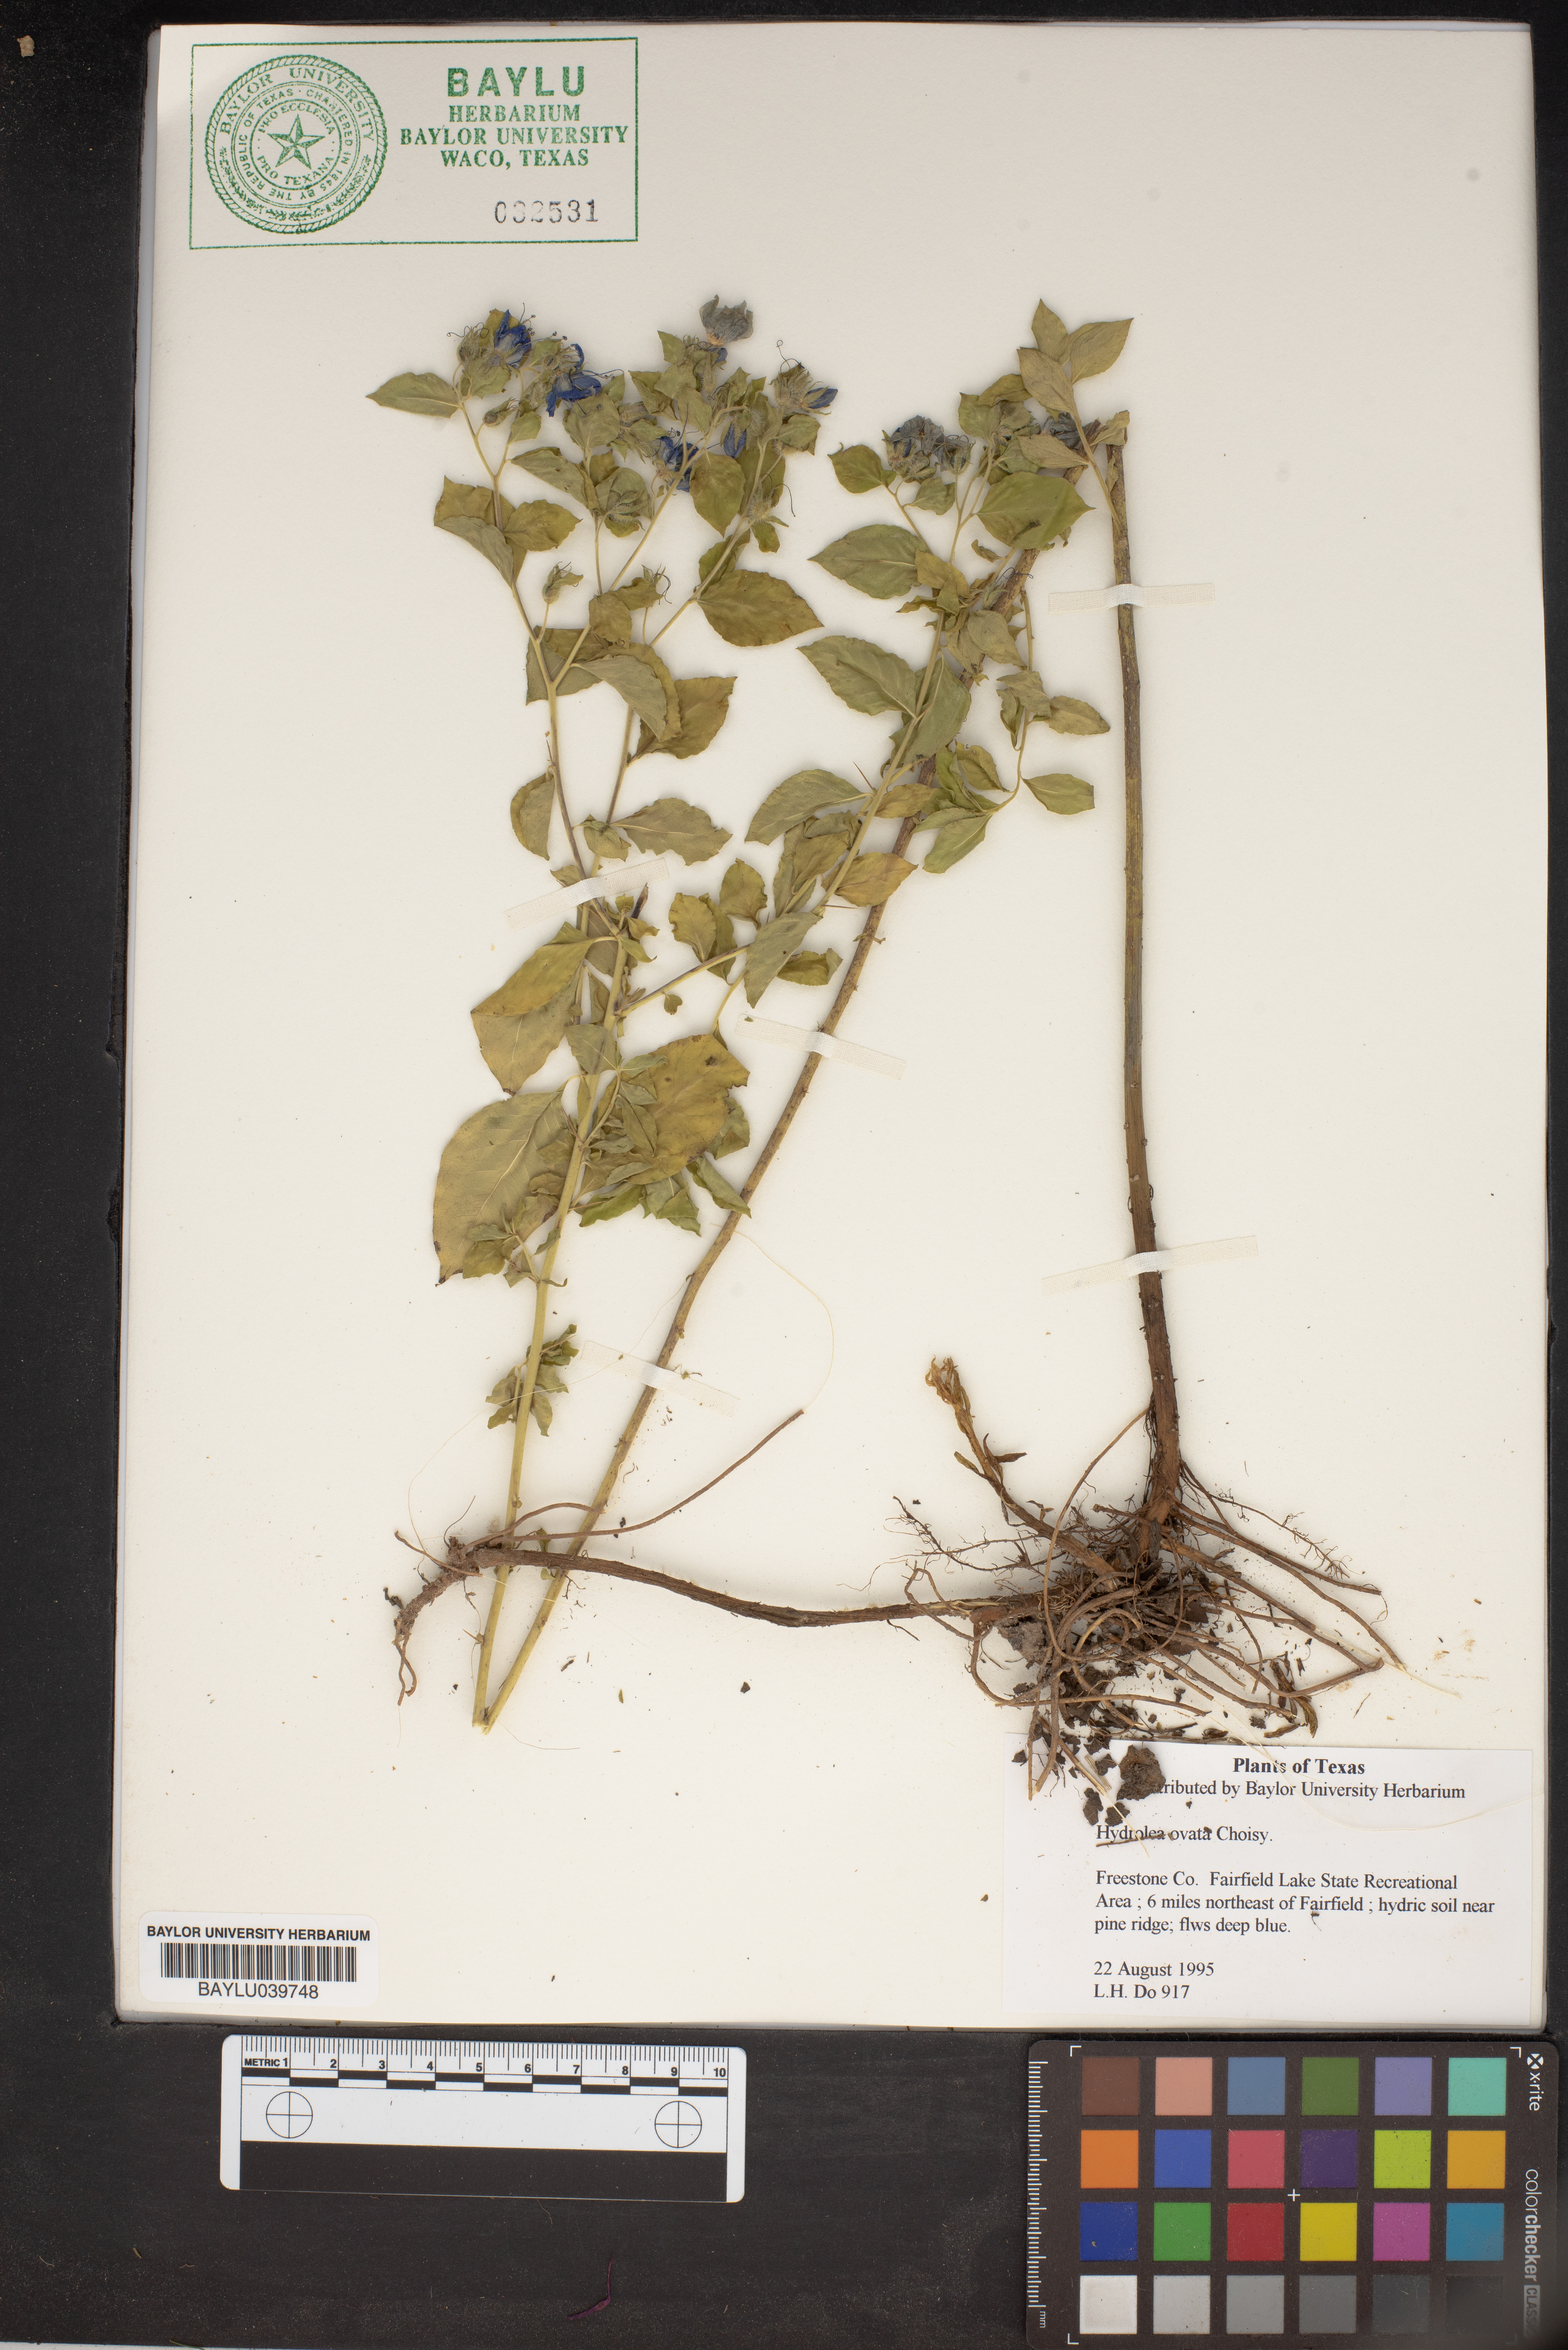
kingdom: Plantae
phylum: Tracheophyta
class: Magnoliopsida
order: Solanales
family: Hydroleaceae
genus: Hydrolea
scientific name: Hydrolea ovata
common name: Ovate false fiddleleaf
